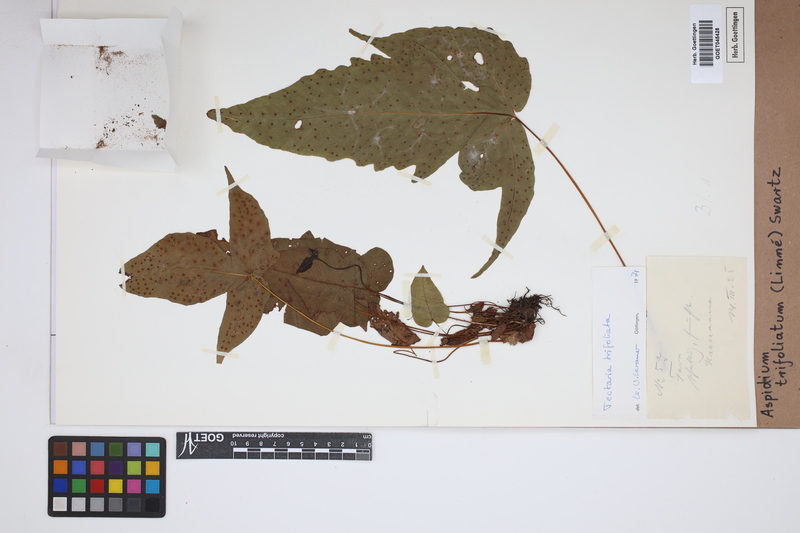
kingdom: Plantae
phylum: Tracheophyta
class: Polypodiopsida
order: Polypodiales
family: Tectariaceae
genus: Tectaria
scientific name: Tectaria trifoliata
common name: Threeleaf halberd fern
